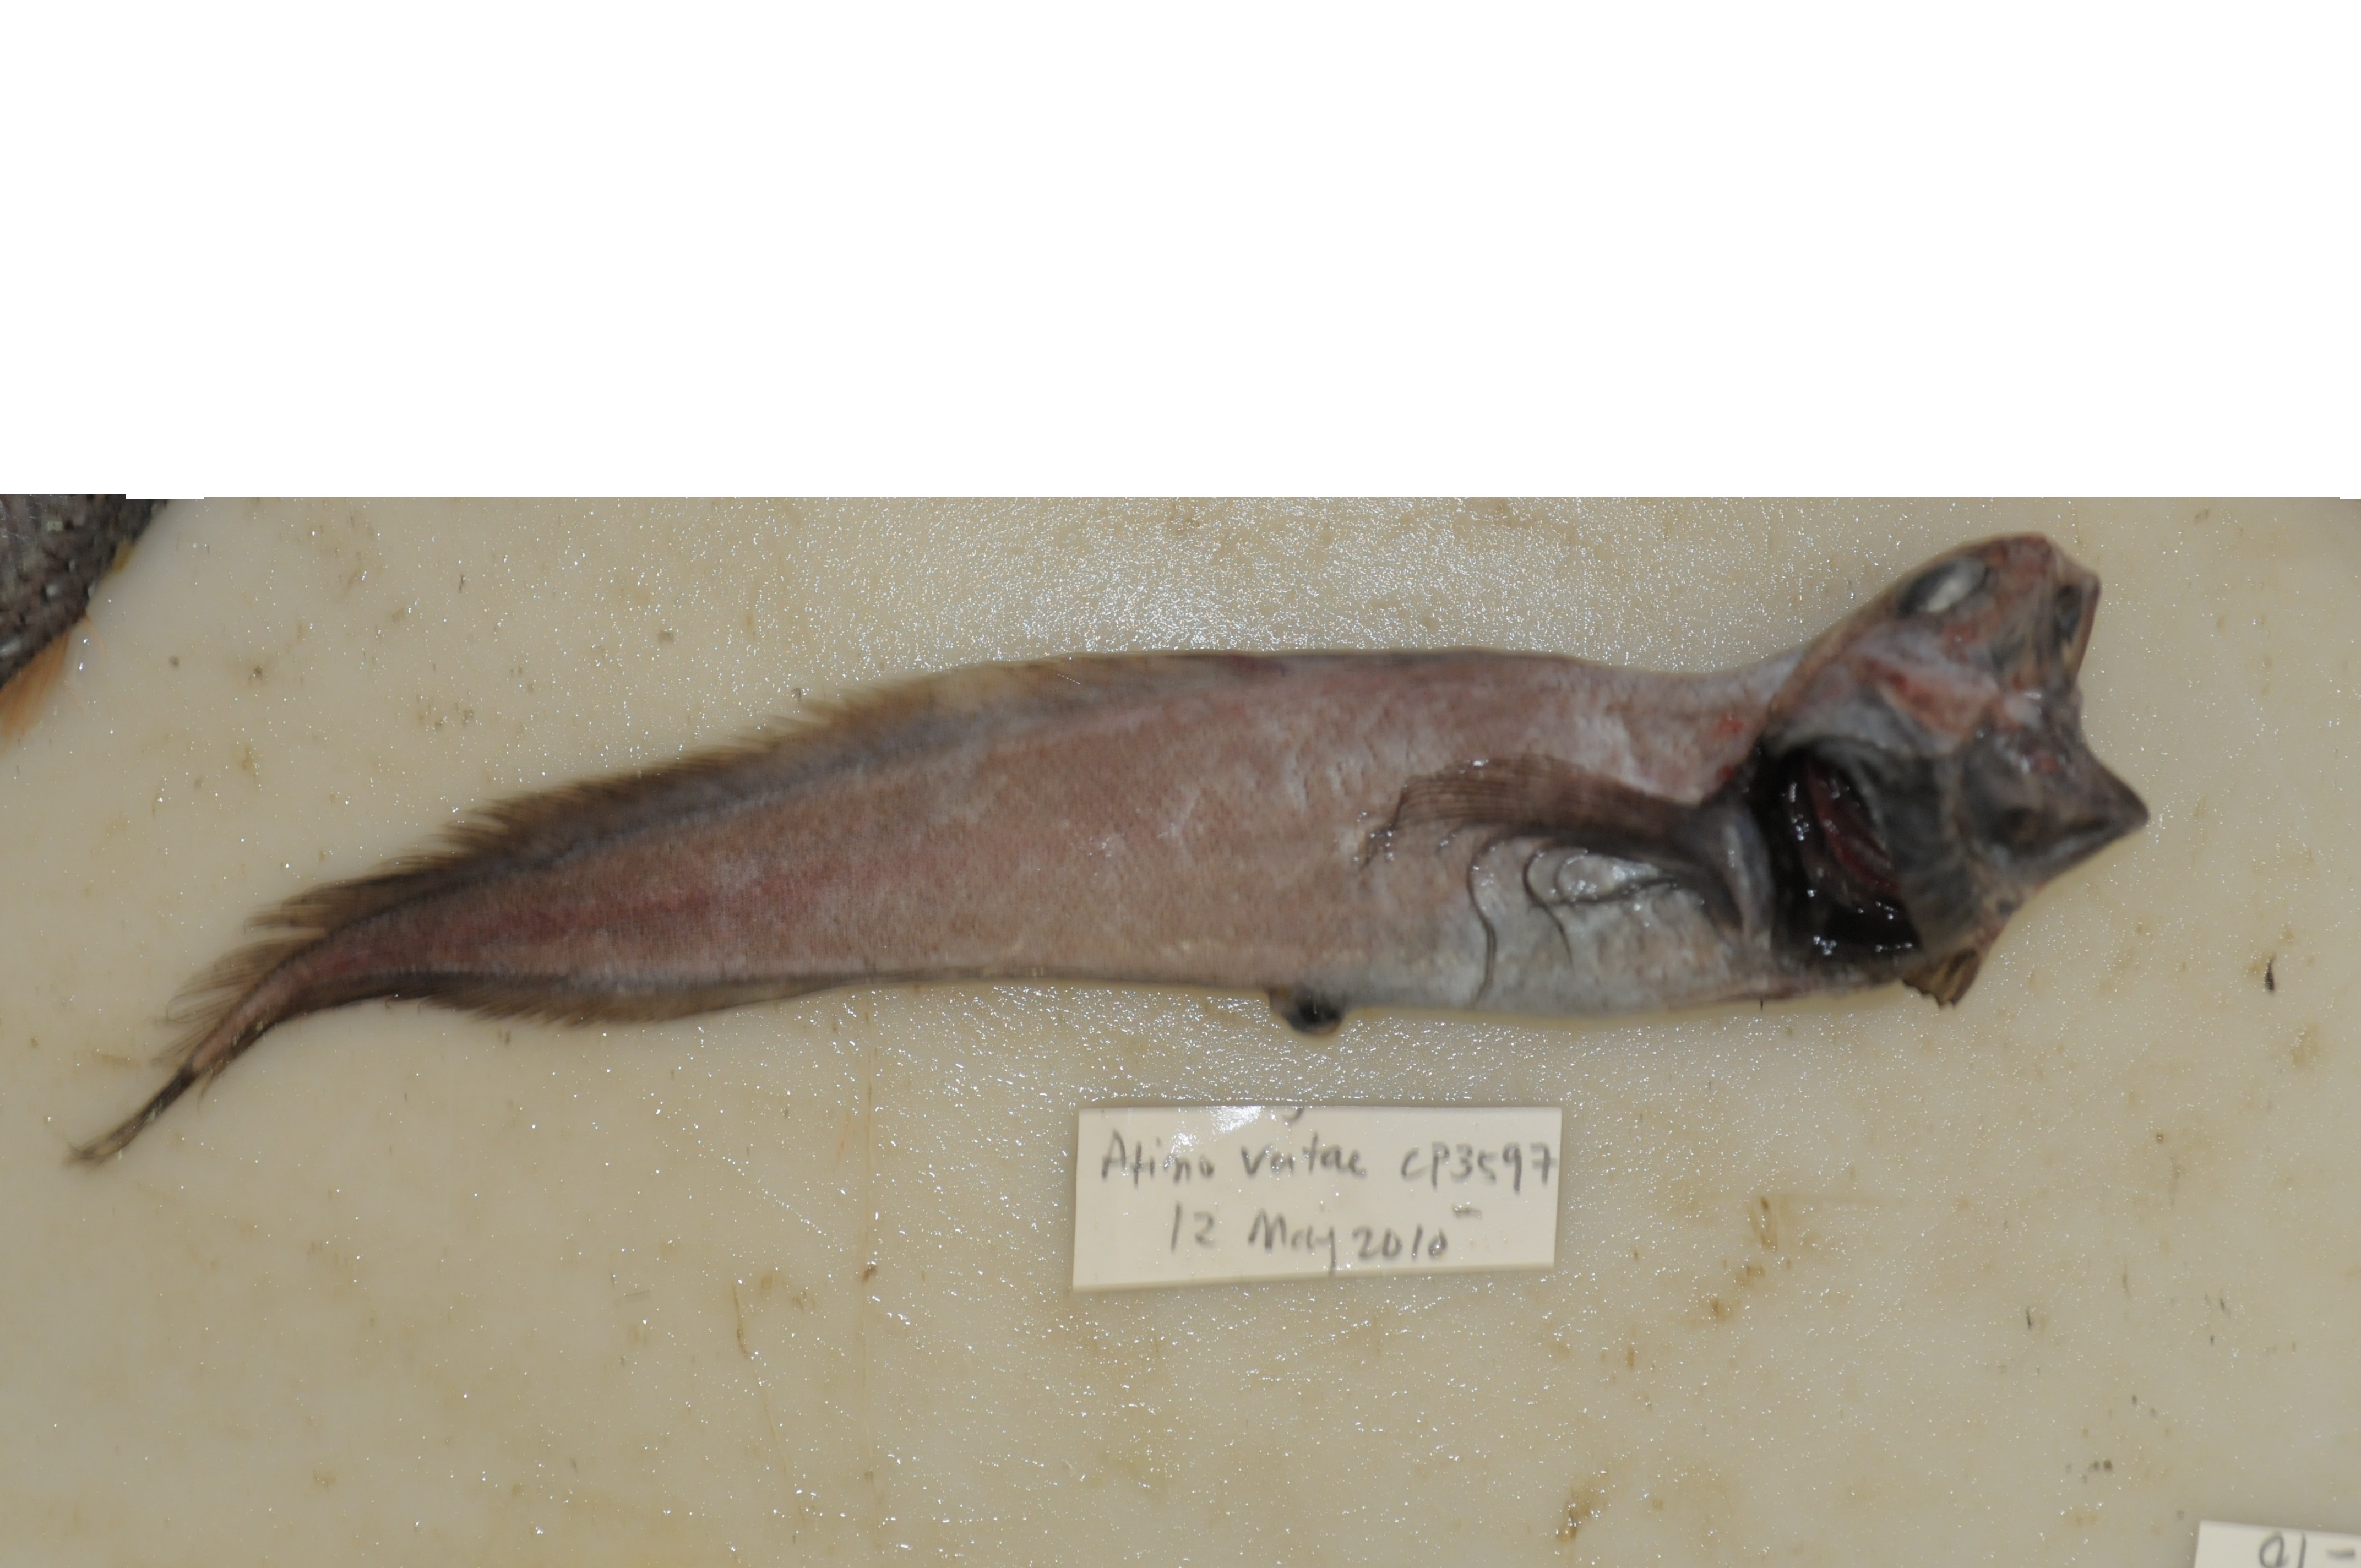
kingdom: Animalia
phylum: Chordata
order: Ophidiiformes
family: Ophidiidae
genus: Dicrolene
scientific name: Dicrolene
